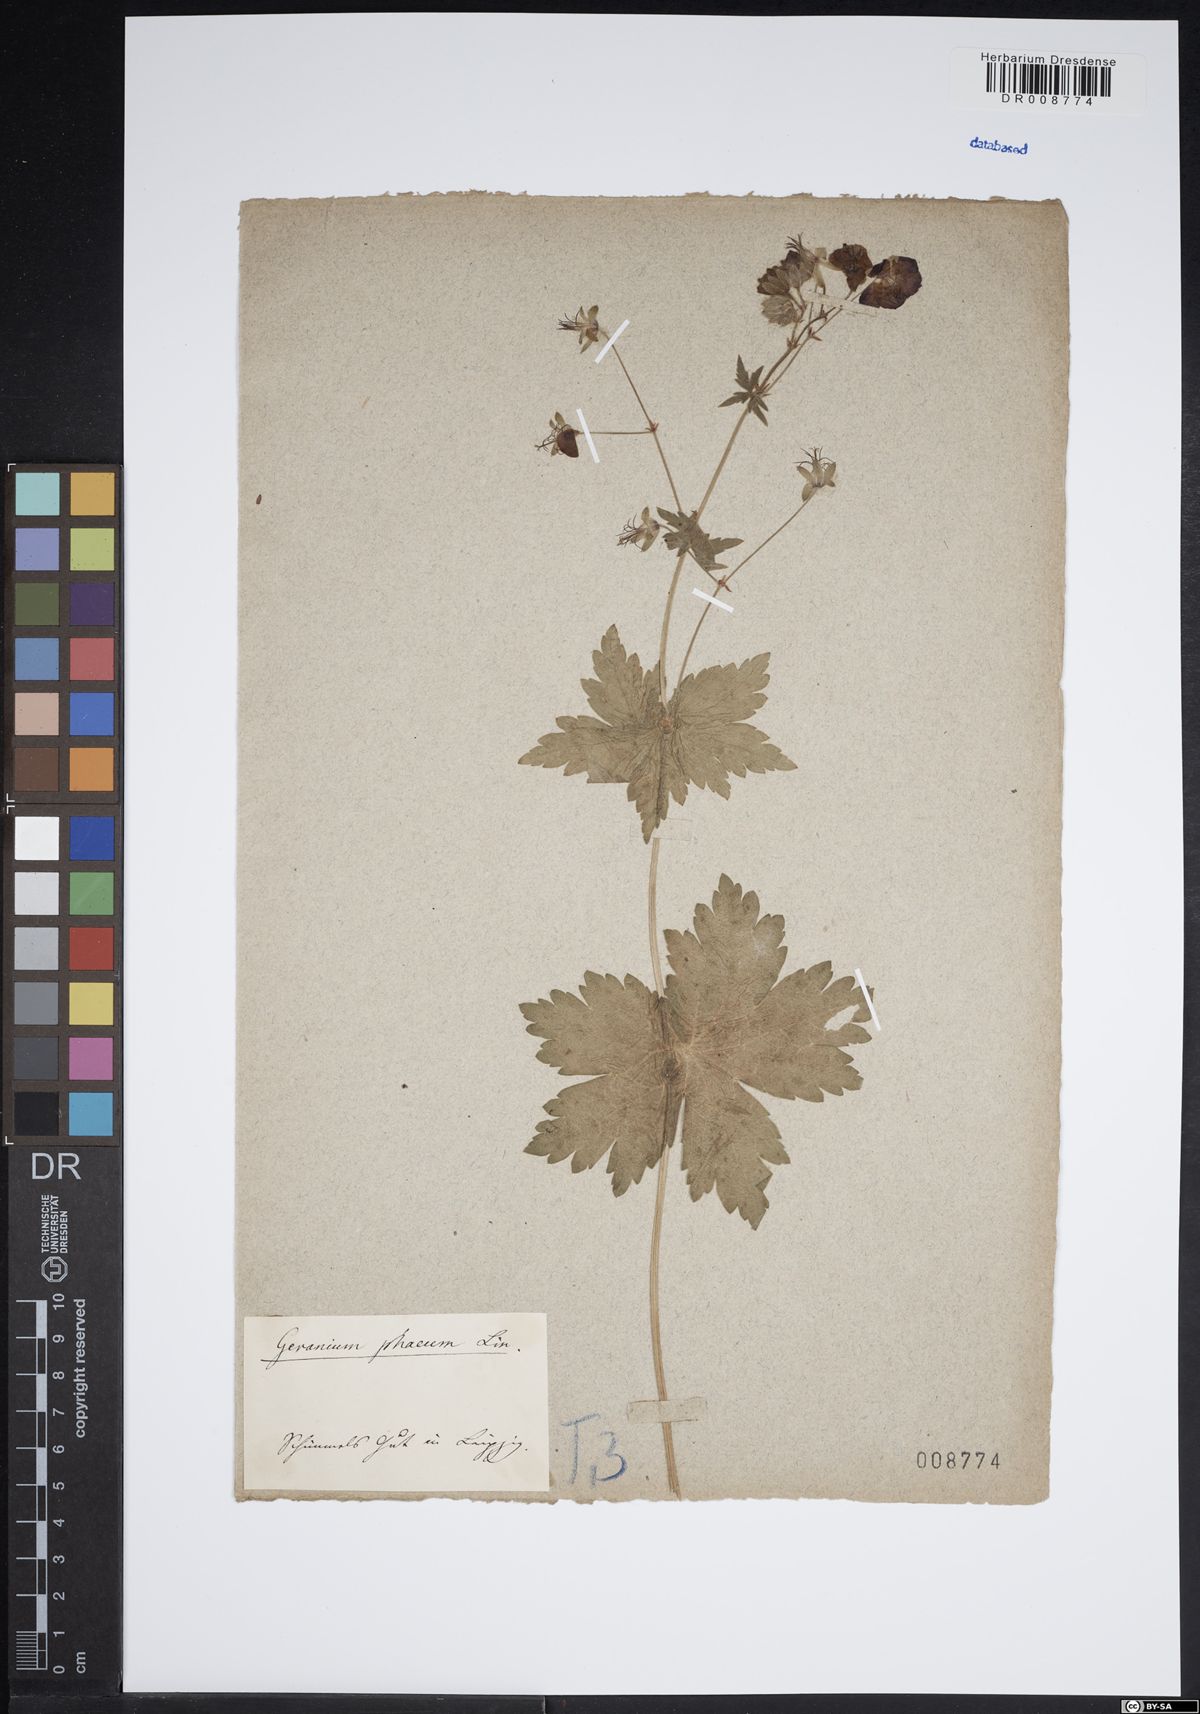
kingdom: Plantae
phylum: Tracheophyta
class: Magnoliopsida
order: Geraniales
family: Geraniaceae
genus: Geranium
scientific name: Geranium phaeum
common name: Dusky crane's-bill
